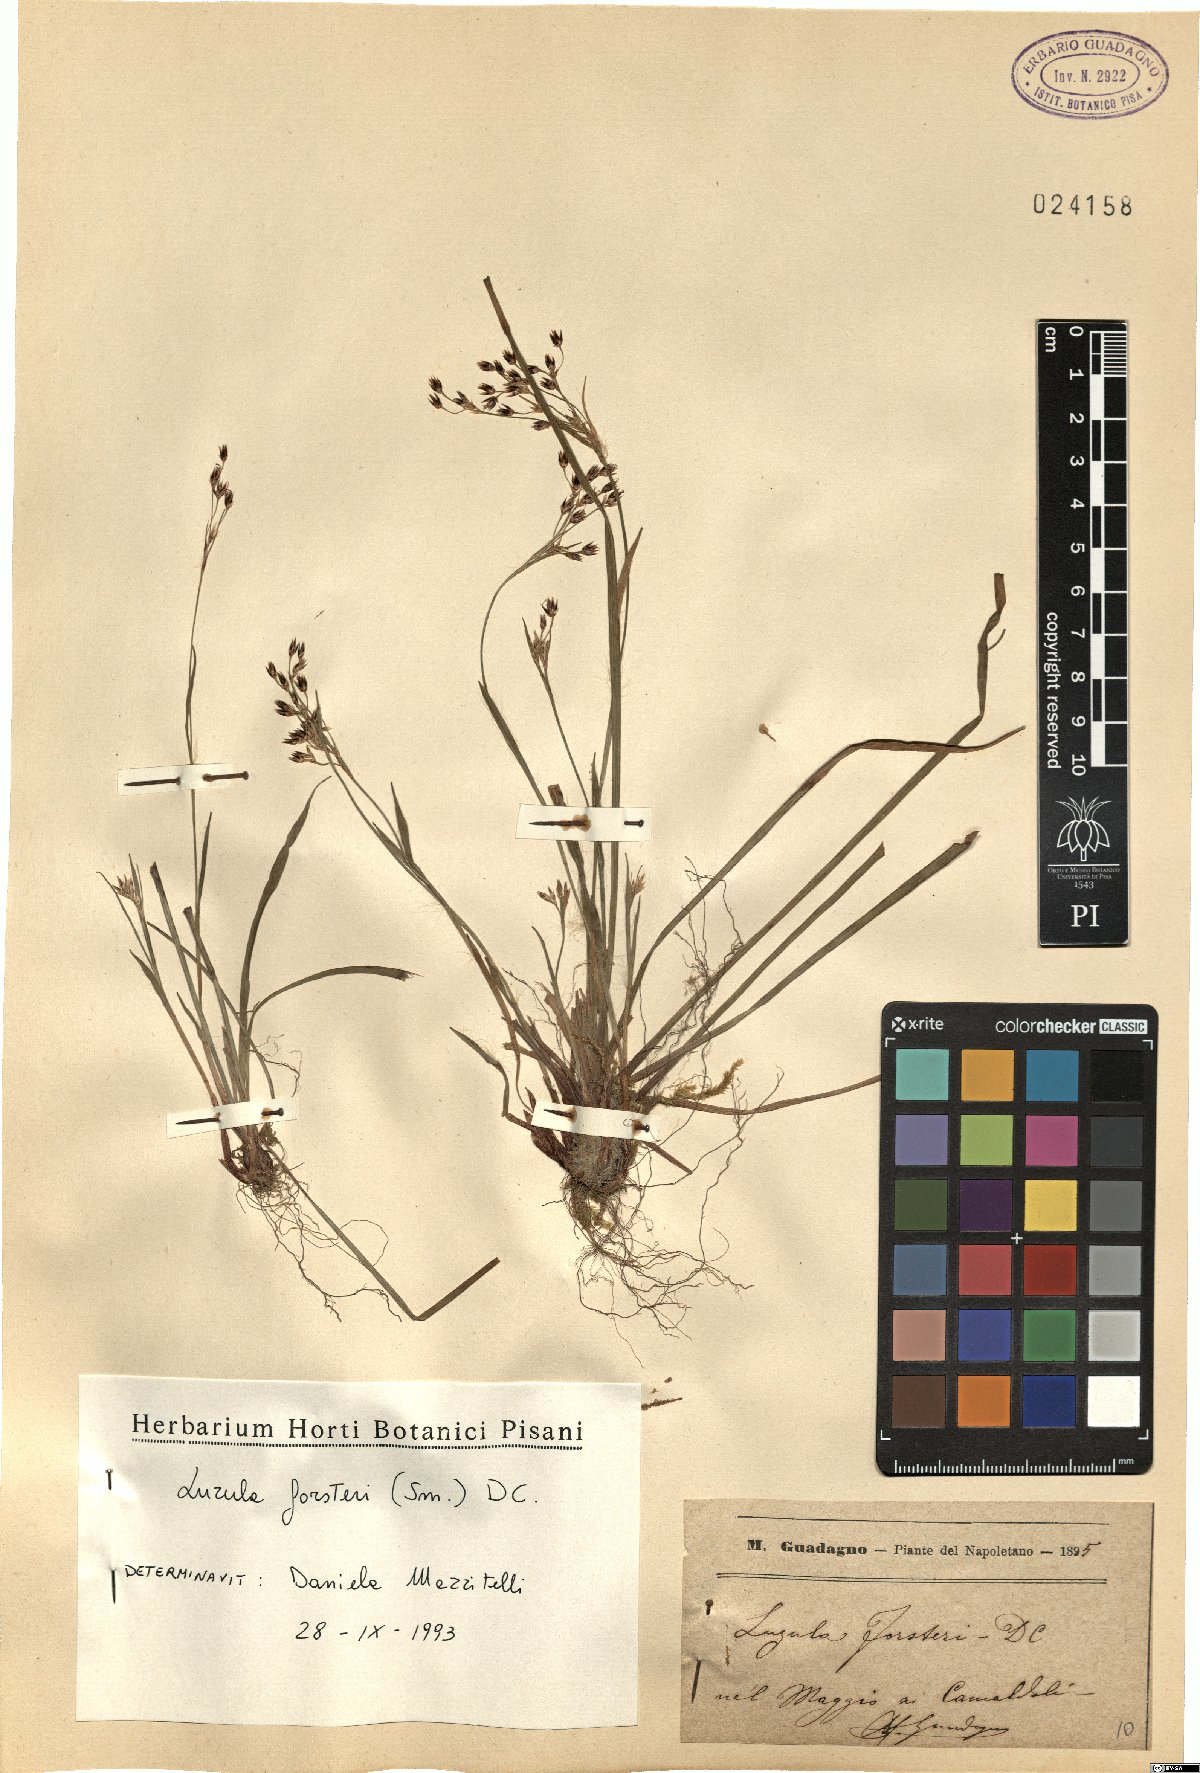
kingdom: Plantae
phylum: Tracheophyta
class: Liliopsida
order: Poales
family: Juncaceae
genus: Luzula
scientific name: Luzula forsteri
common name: Southern wood-rush
